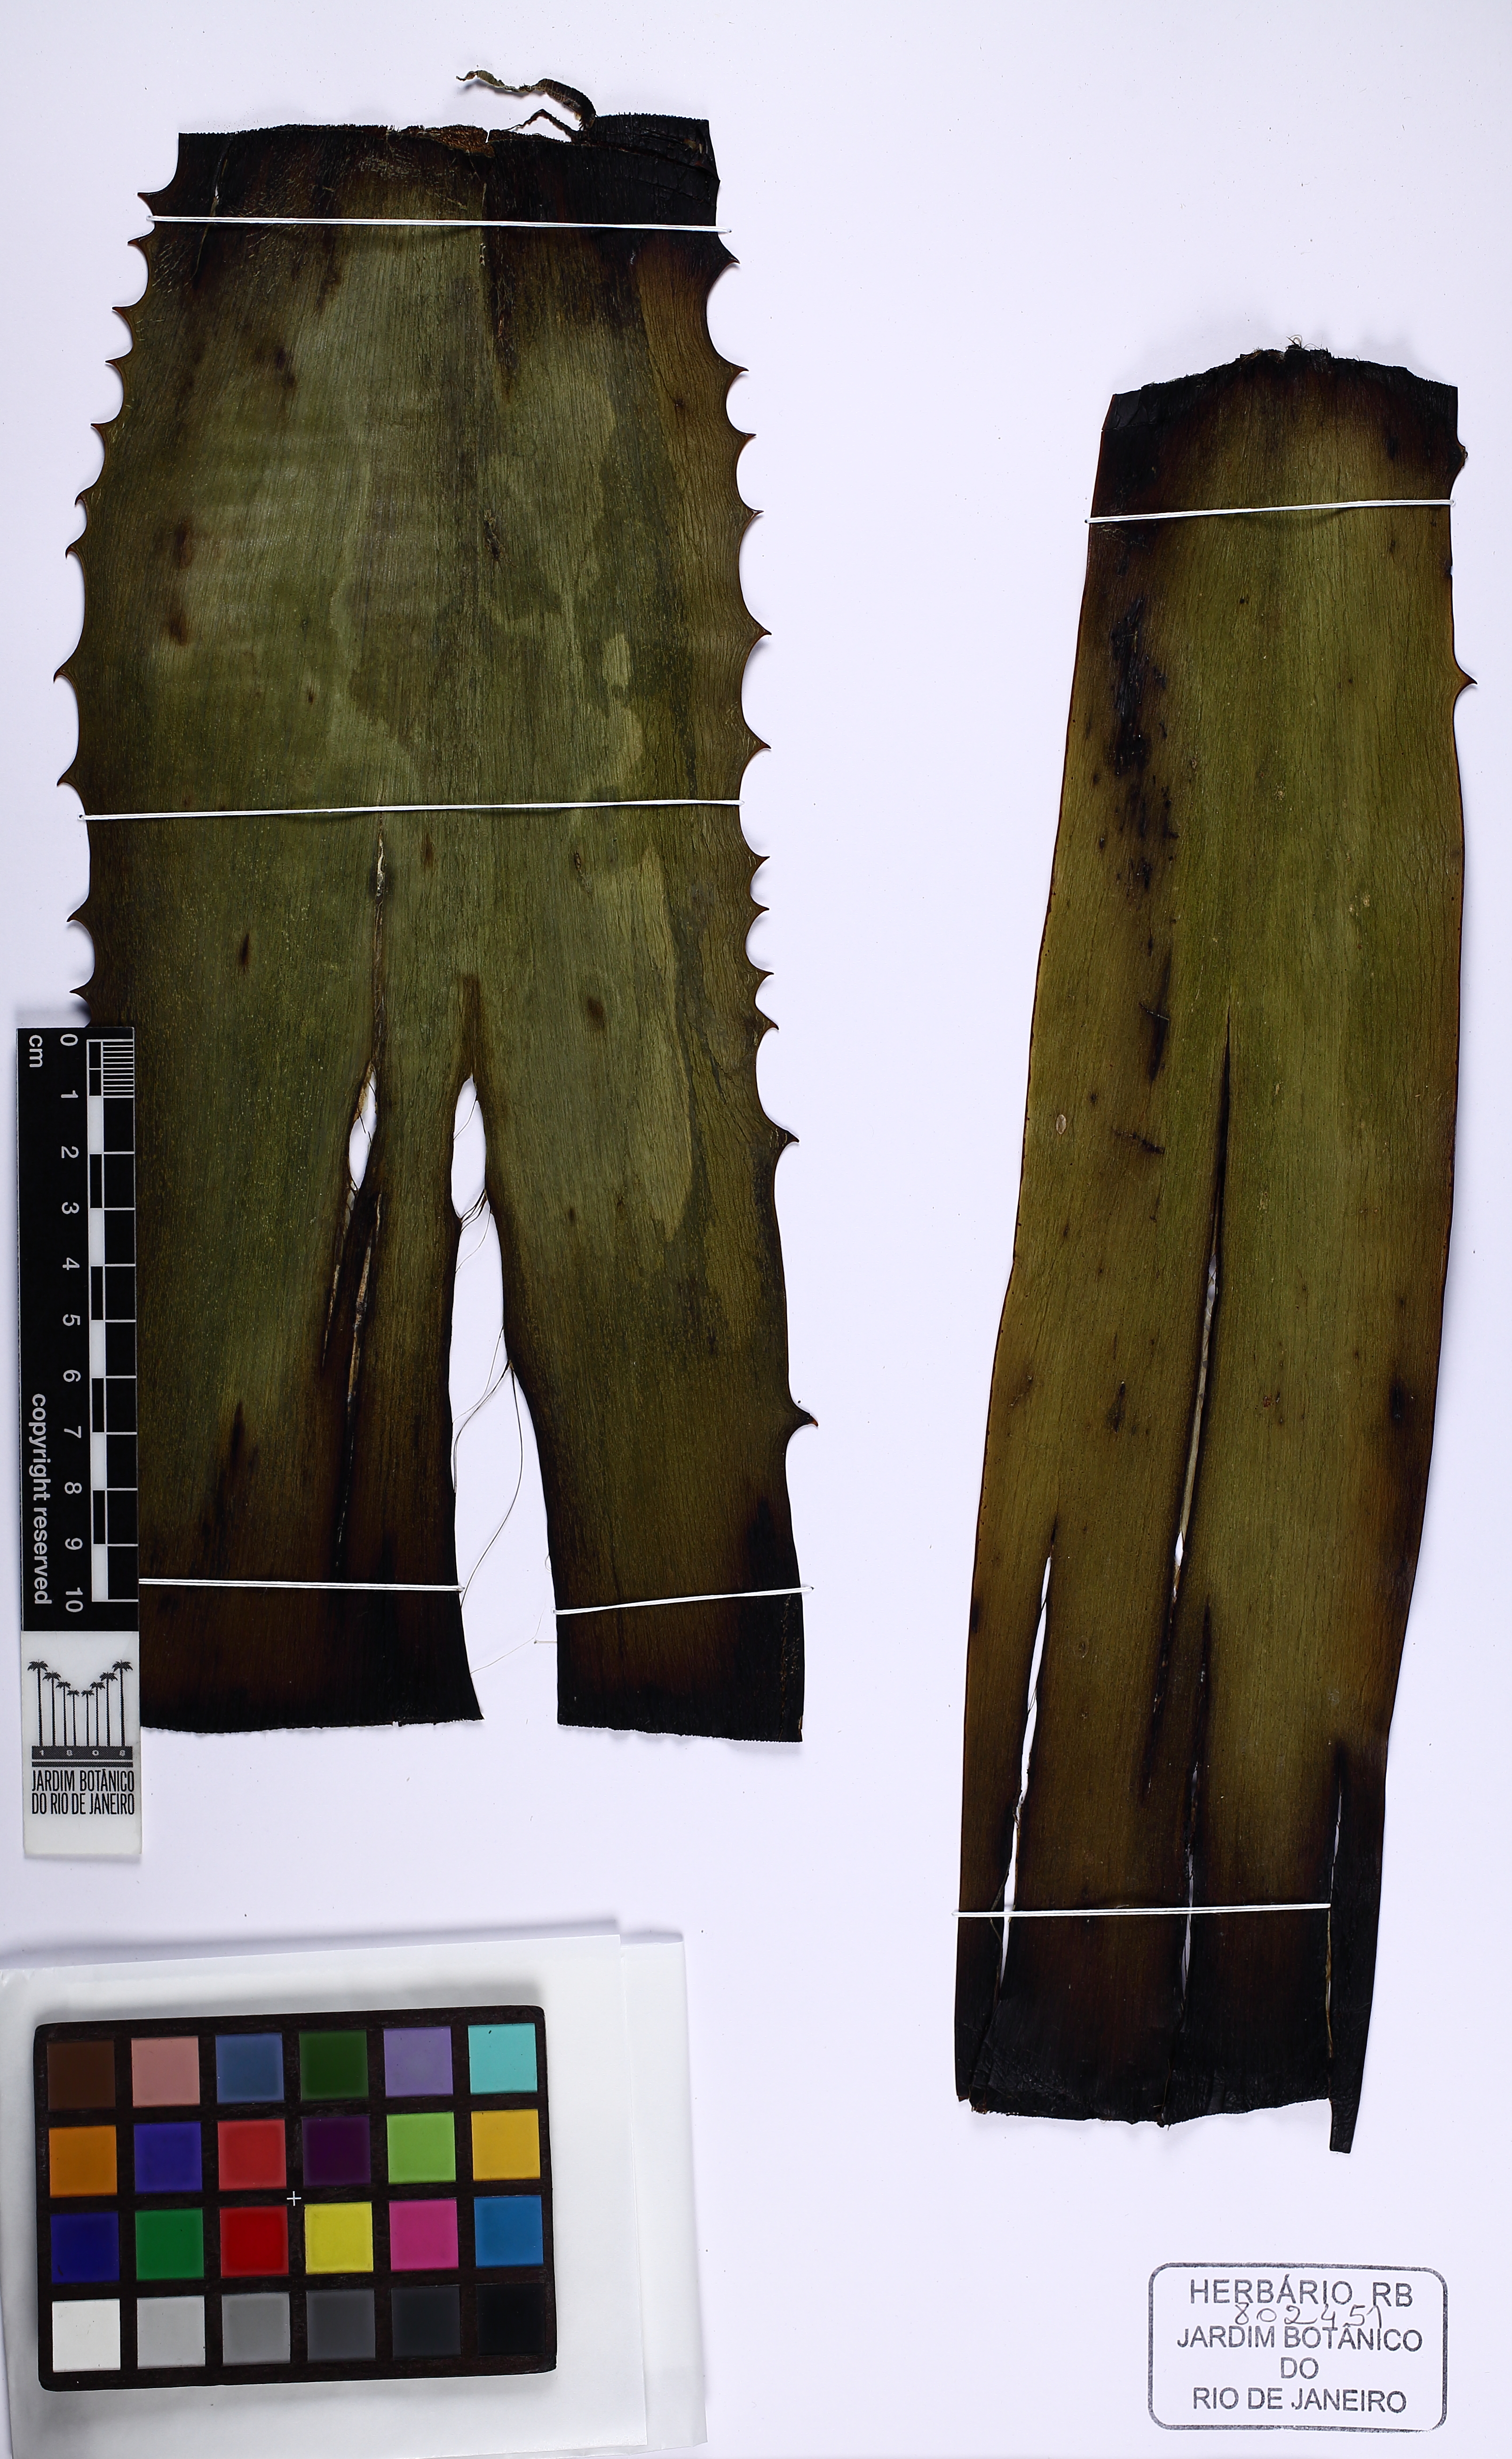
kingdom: Plantae
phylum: Tracheophyta
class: Liliopsida
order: Asparagales
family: Asparagaceae
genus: Furcraea
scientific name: Furcraea foetida
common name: Mauritius hemp
